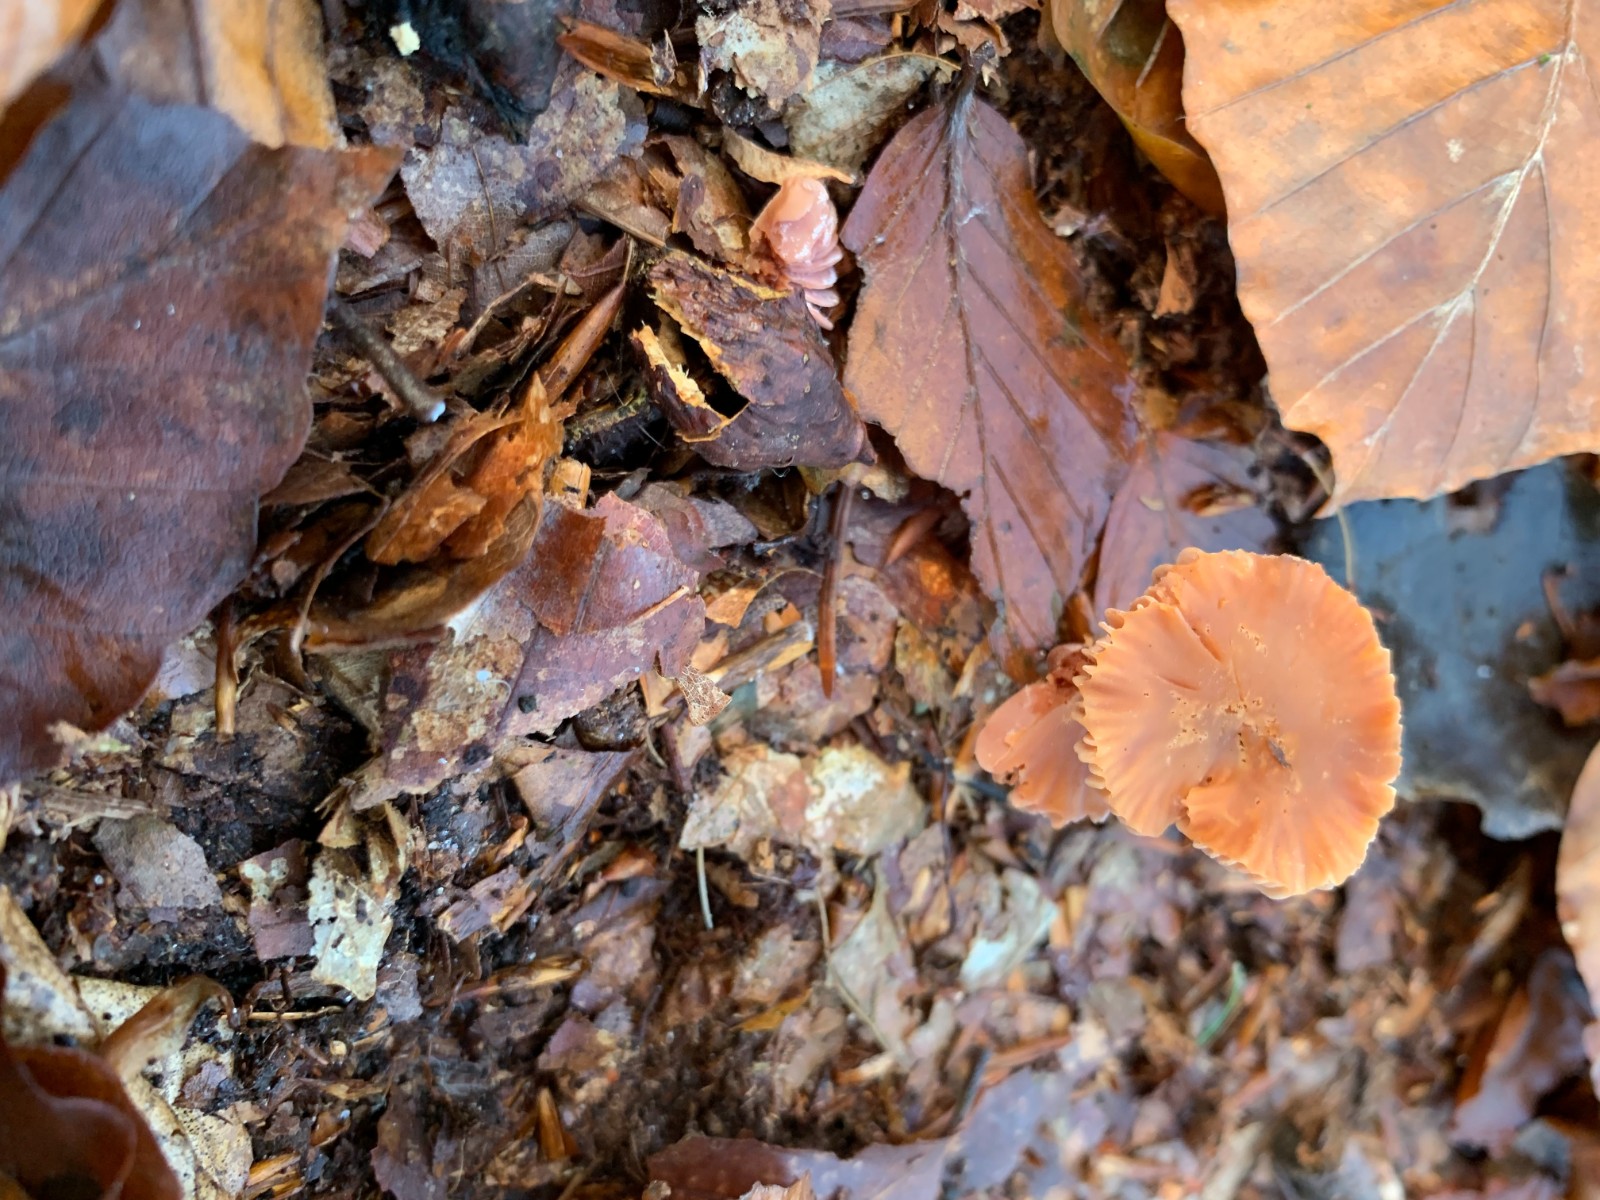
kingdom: Fungi
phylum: Basidiomycota
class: Agaricomycetes
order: Agaricales
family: Hydnangiaceae
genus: Laccaria
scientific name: Laccaria laccata
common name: rød ametysthat
